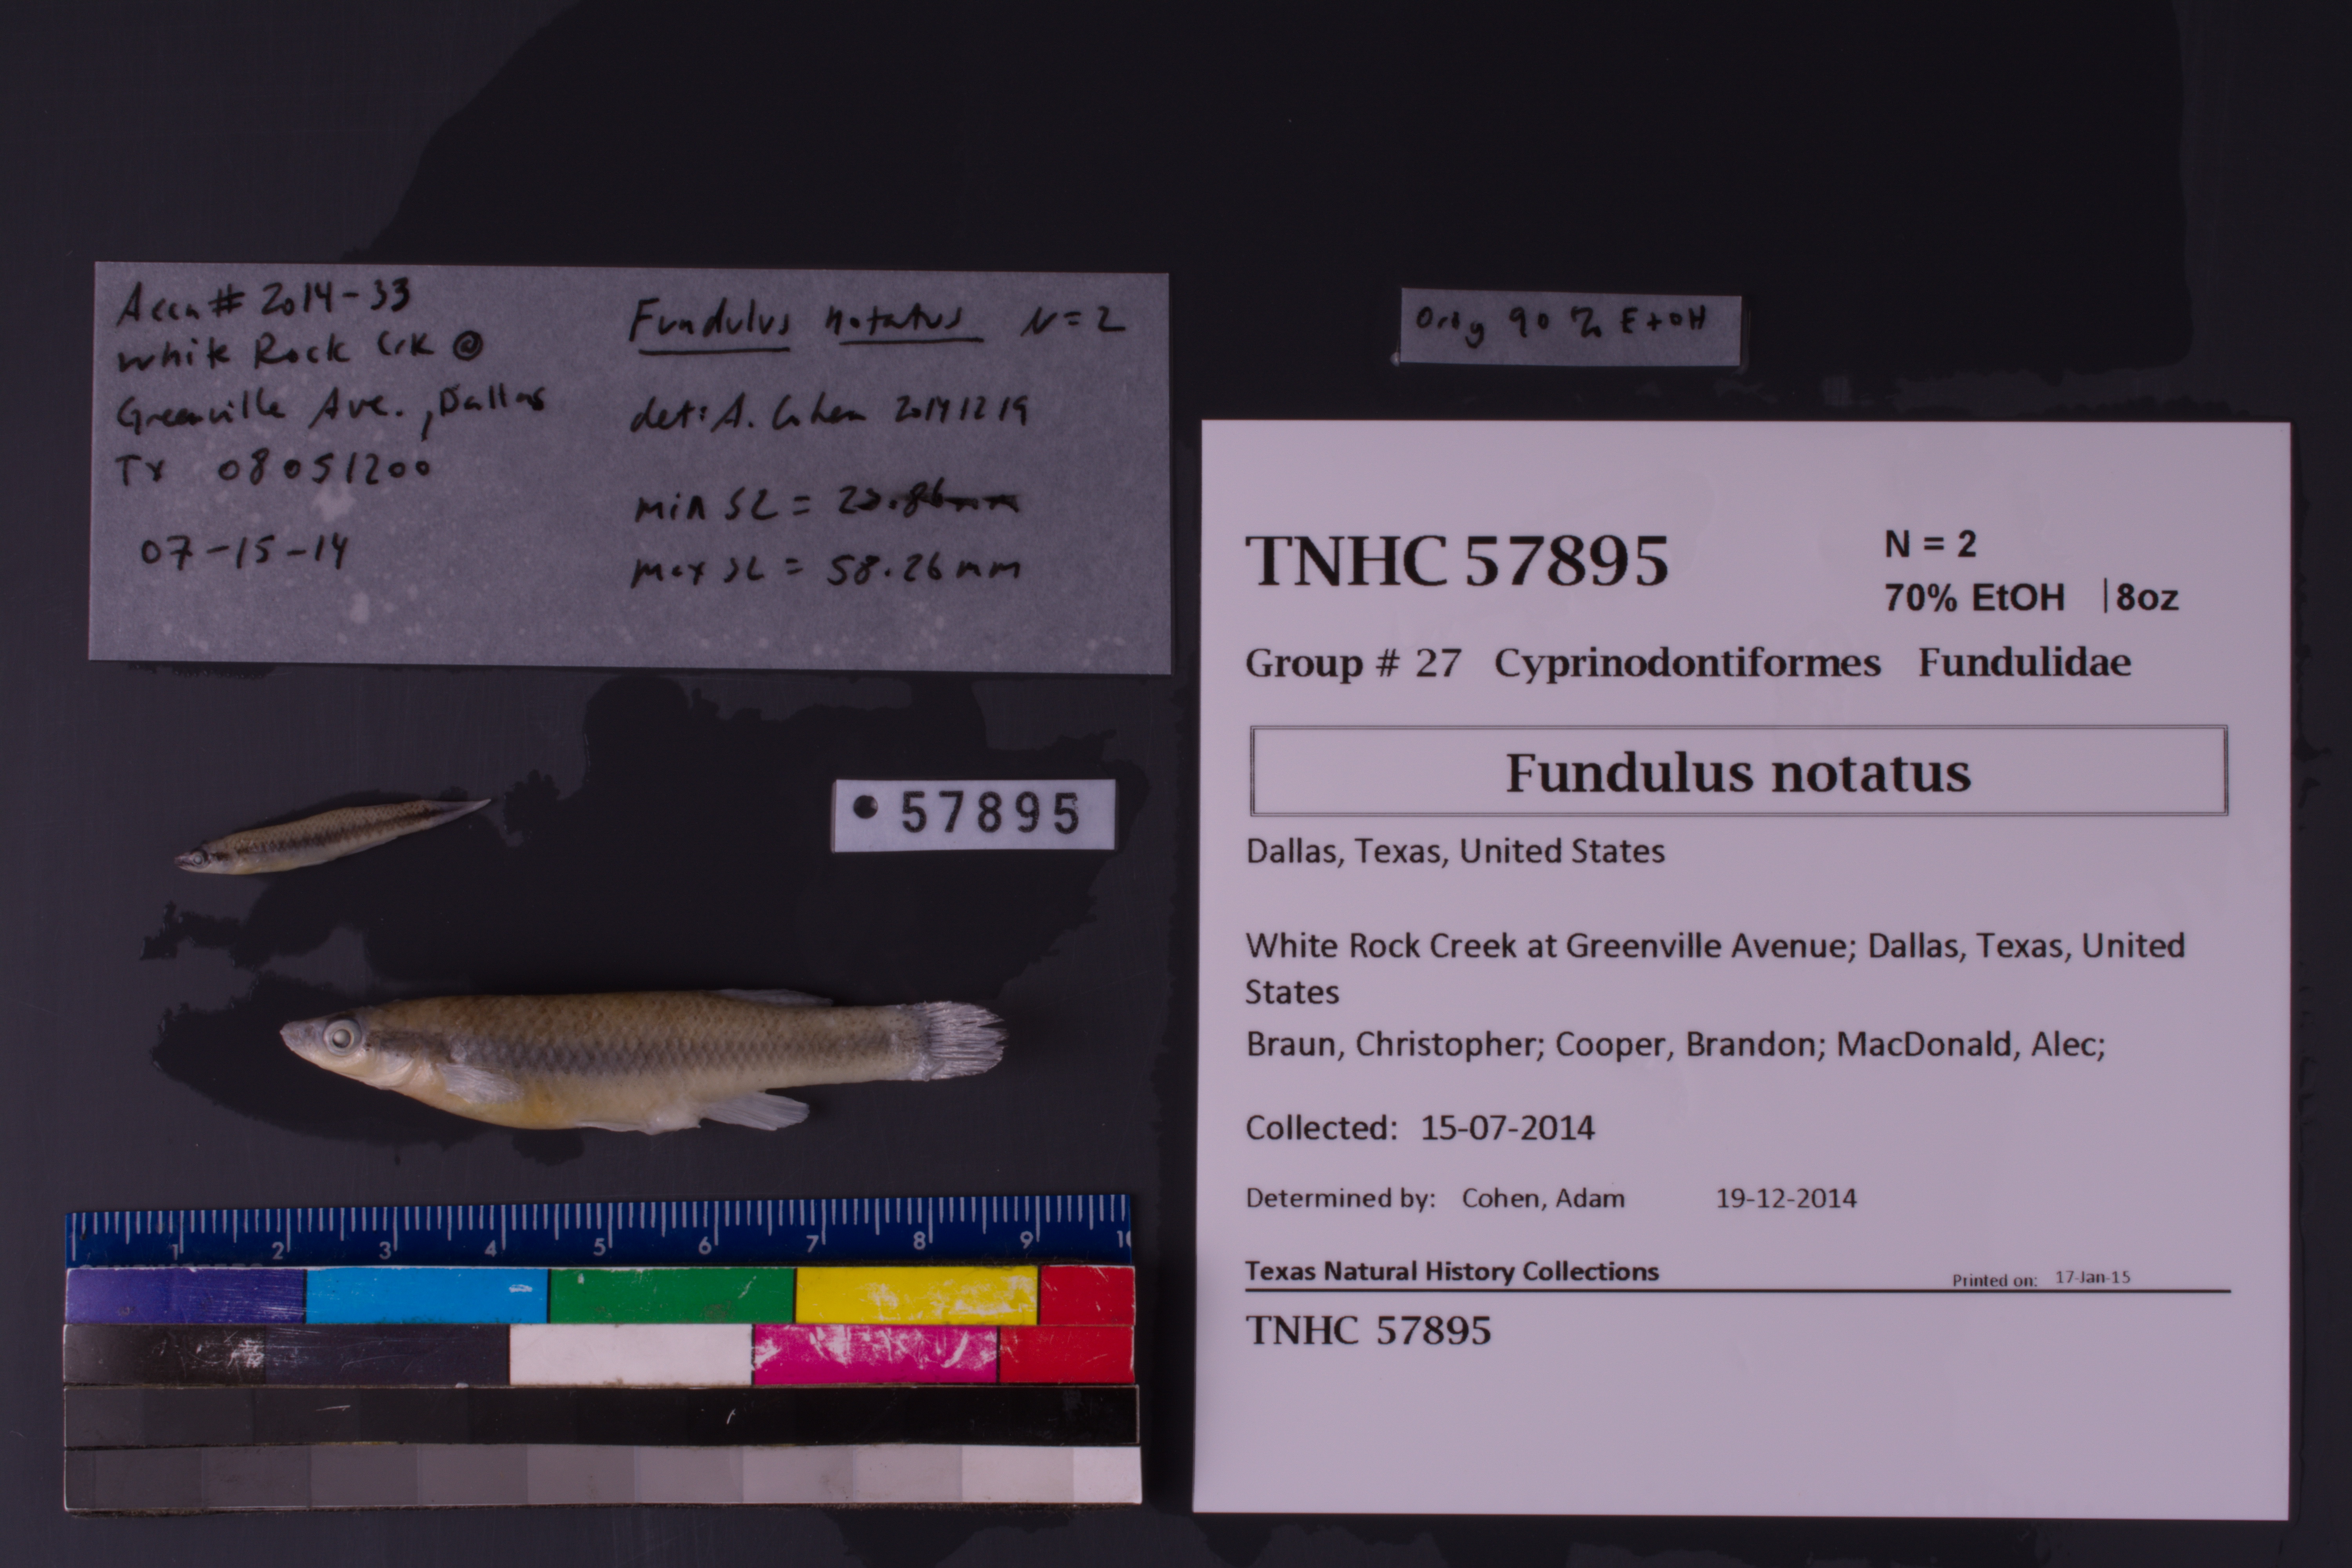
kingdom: Animalia
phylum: Chordata
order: Cyprinodontiformes
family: Fundulidae
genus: Fundulus
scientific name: Fundulus notatus
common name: Blackstripe topminnow
